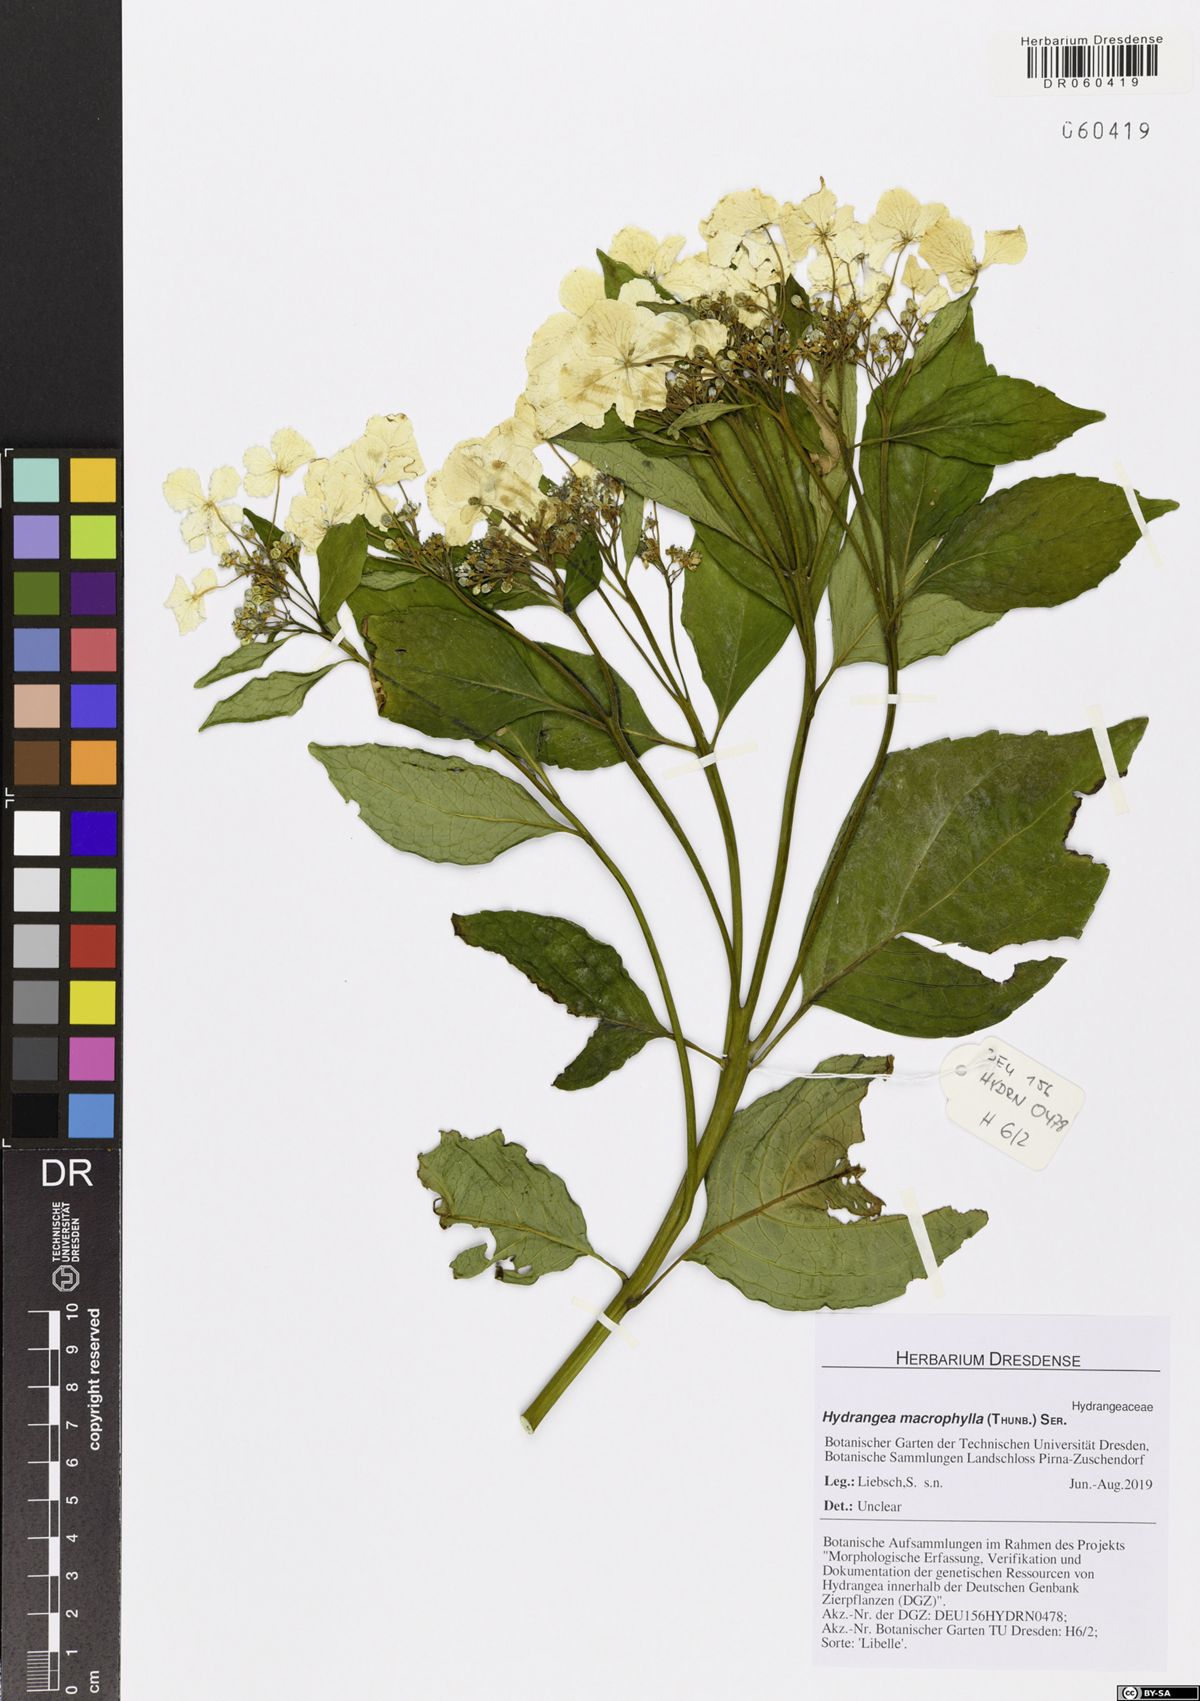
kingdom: Plantae
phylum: Tracheophyta
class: Magnoliopsida
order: Cornales
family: Hydrangeaceae
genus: Hydrangea
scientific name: Hydrangea macrophylla
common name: Hydrangea
